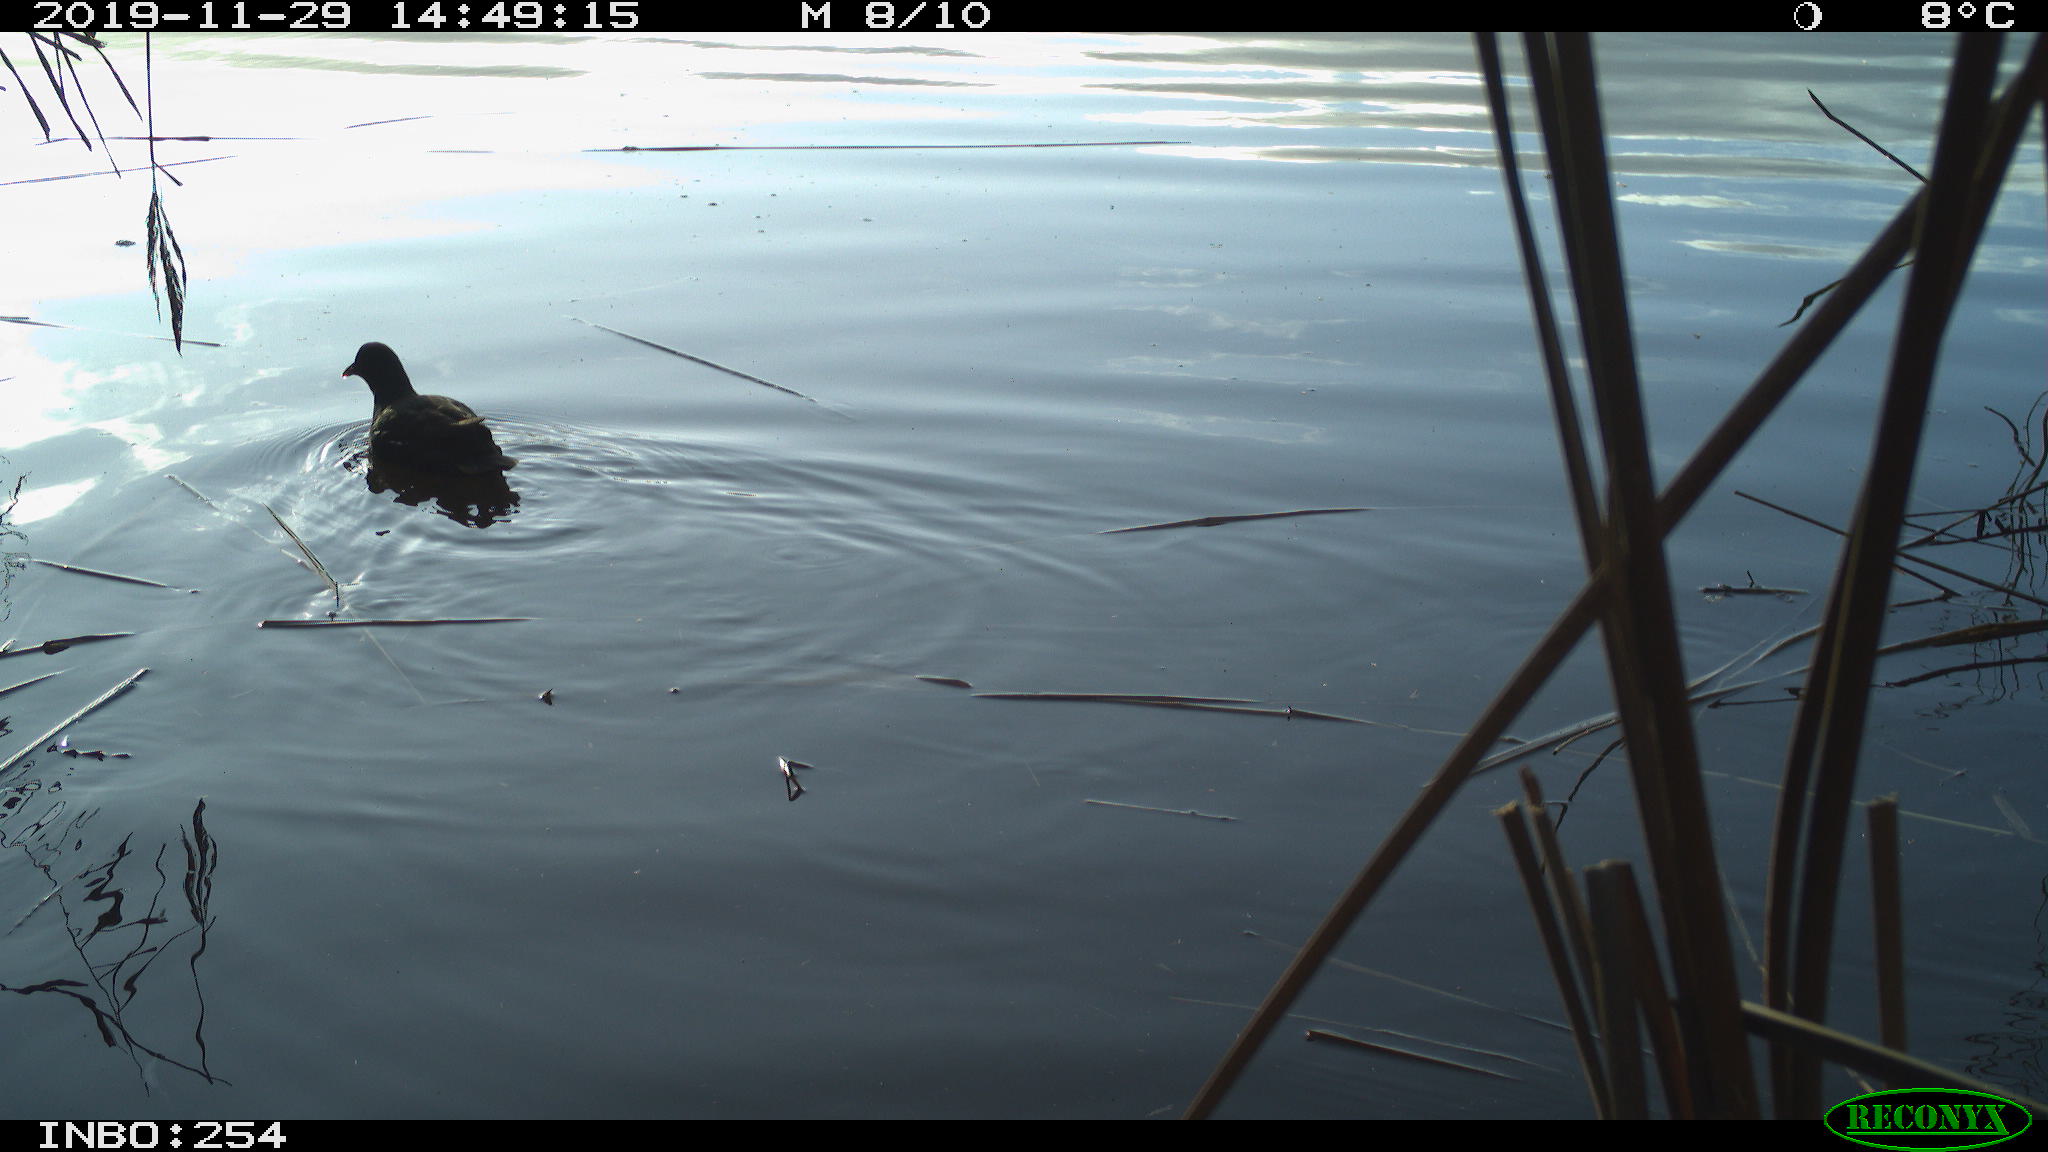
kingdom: Animalia
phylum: Chordata
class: Aves
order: Gruiformes
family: Rallidae
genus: Fulica
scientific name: Fulica atra
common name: Eurasian coot
